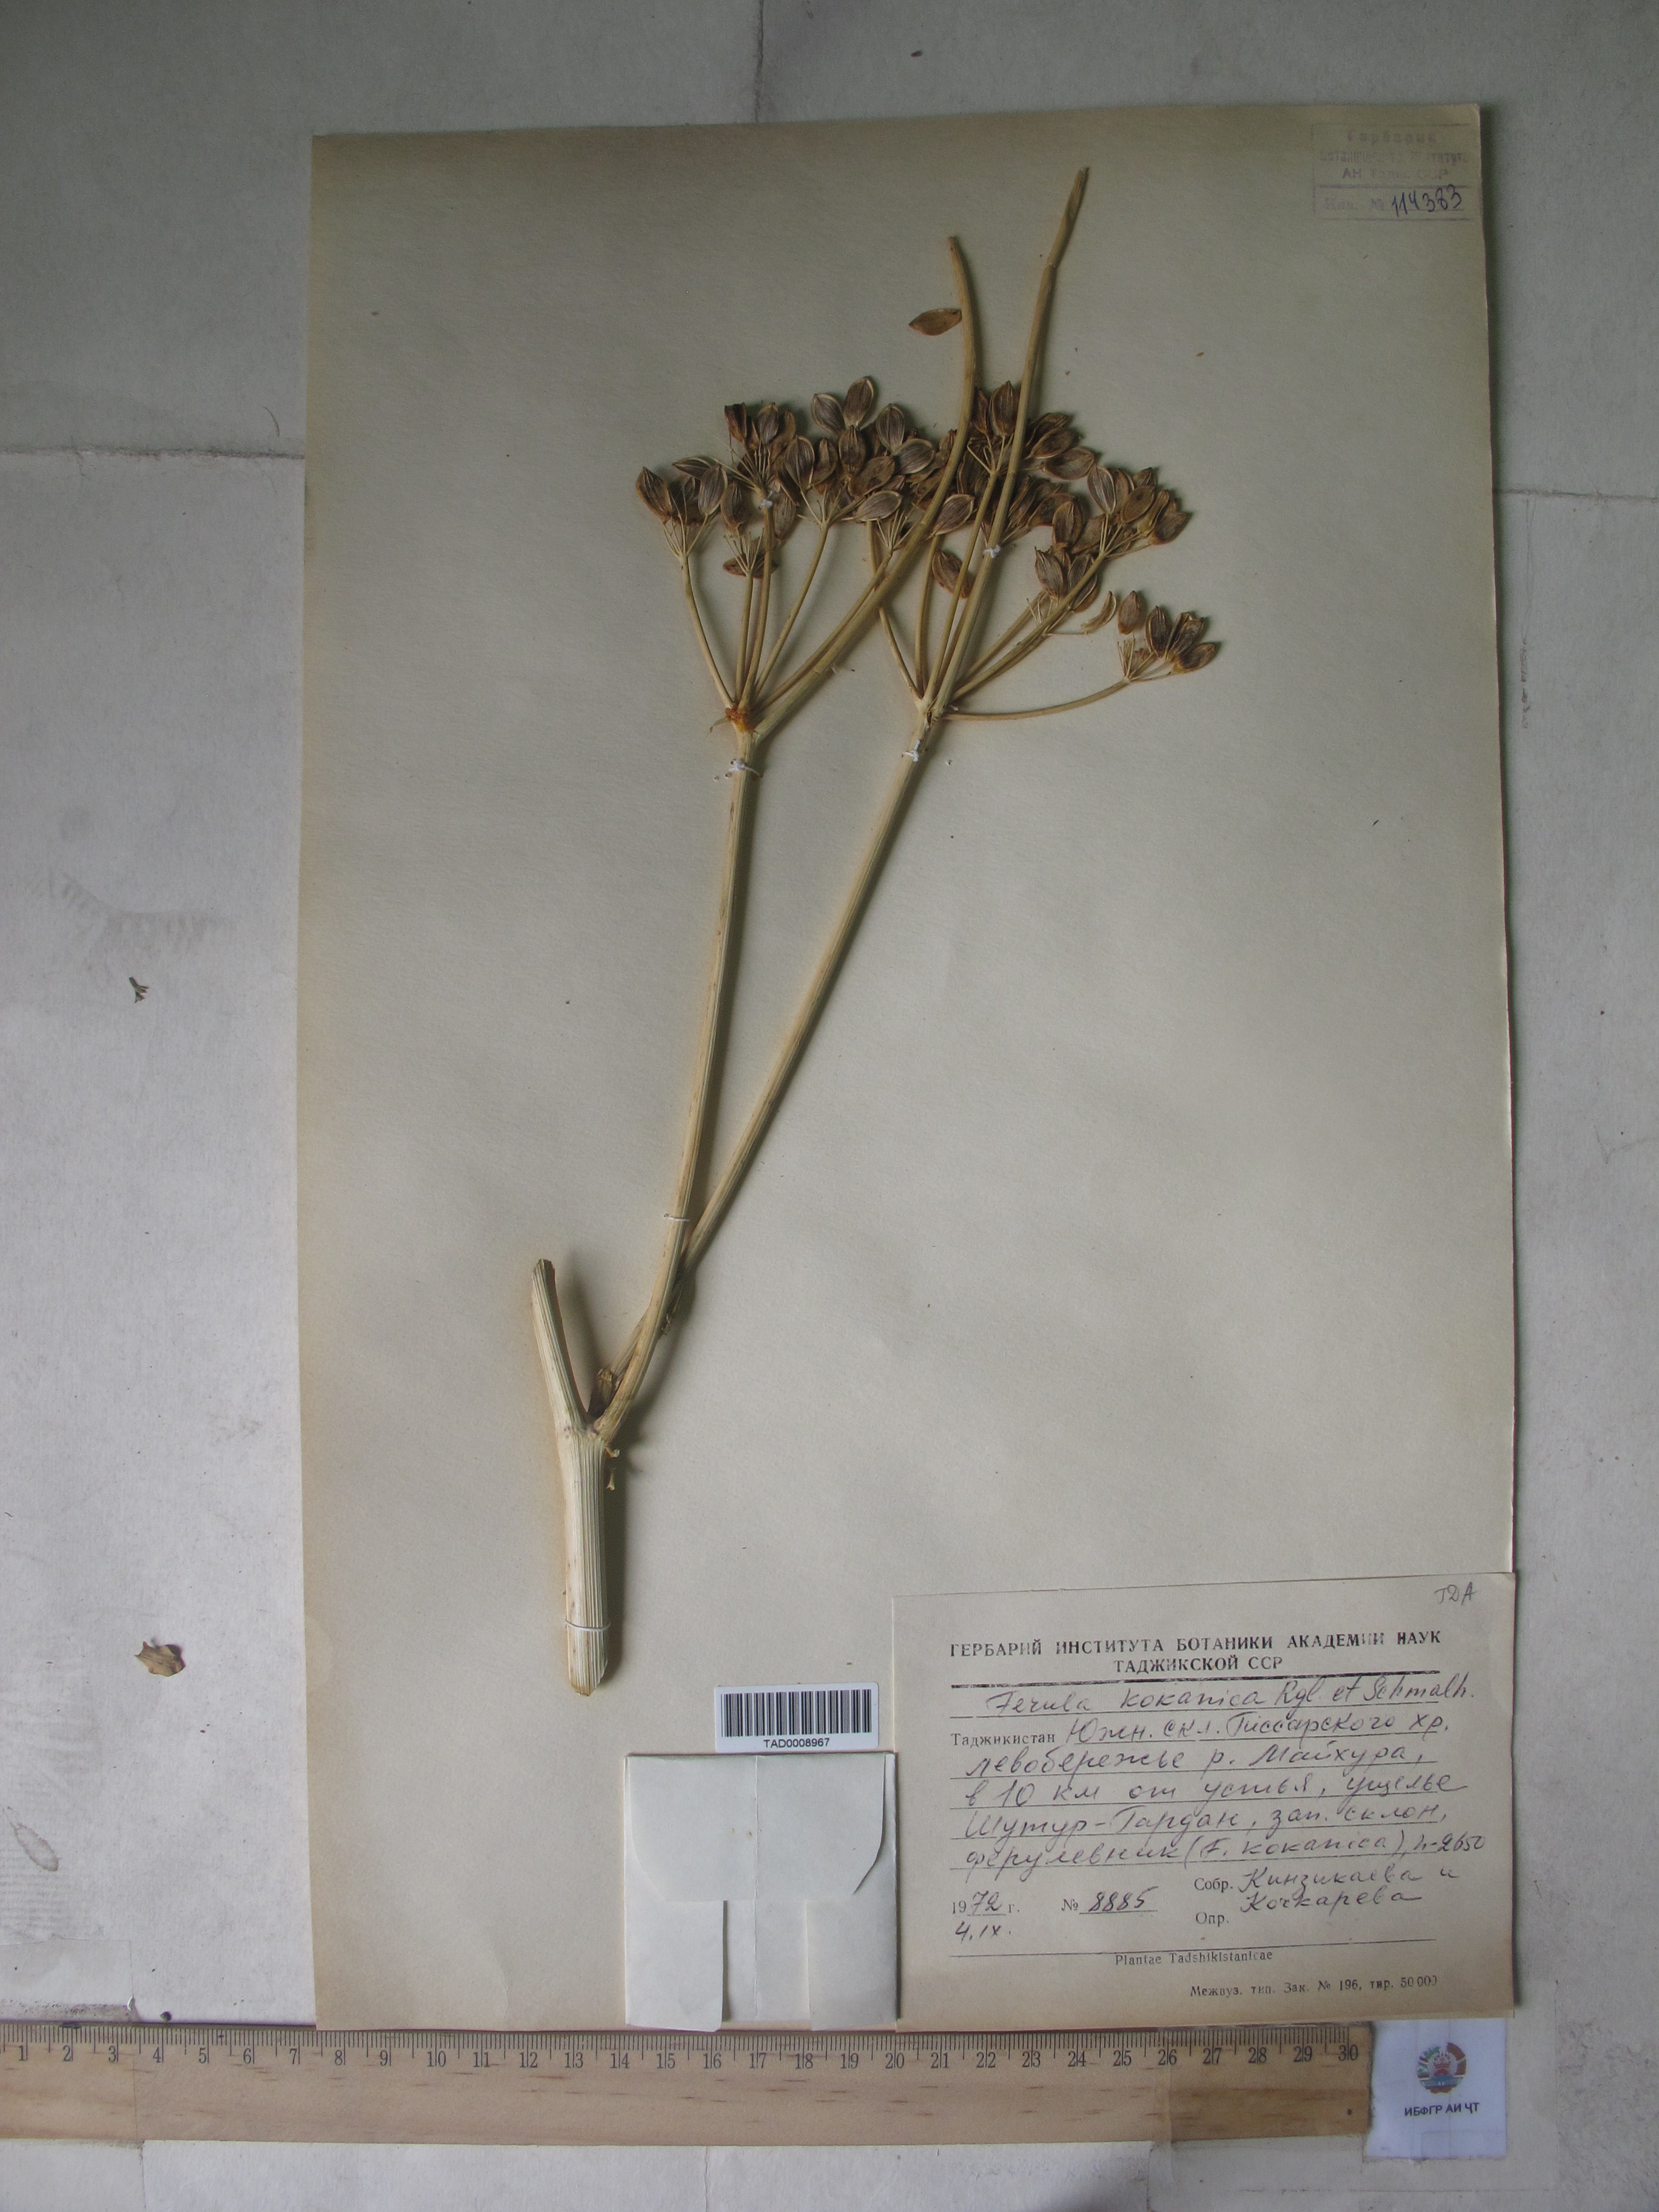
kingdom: Plantae
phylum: Tracheophyta
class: Magnoliopsida
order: Apiales
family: Apiaceae
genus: Ferula
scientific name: Ferula kokanica
